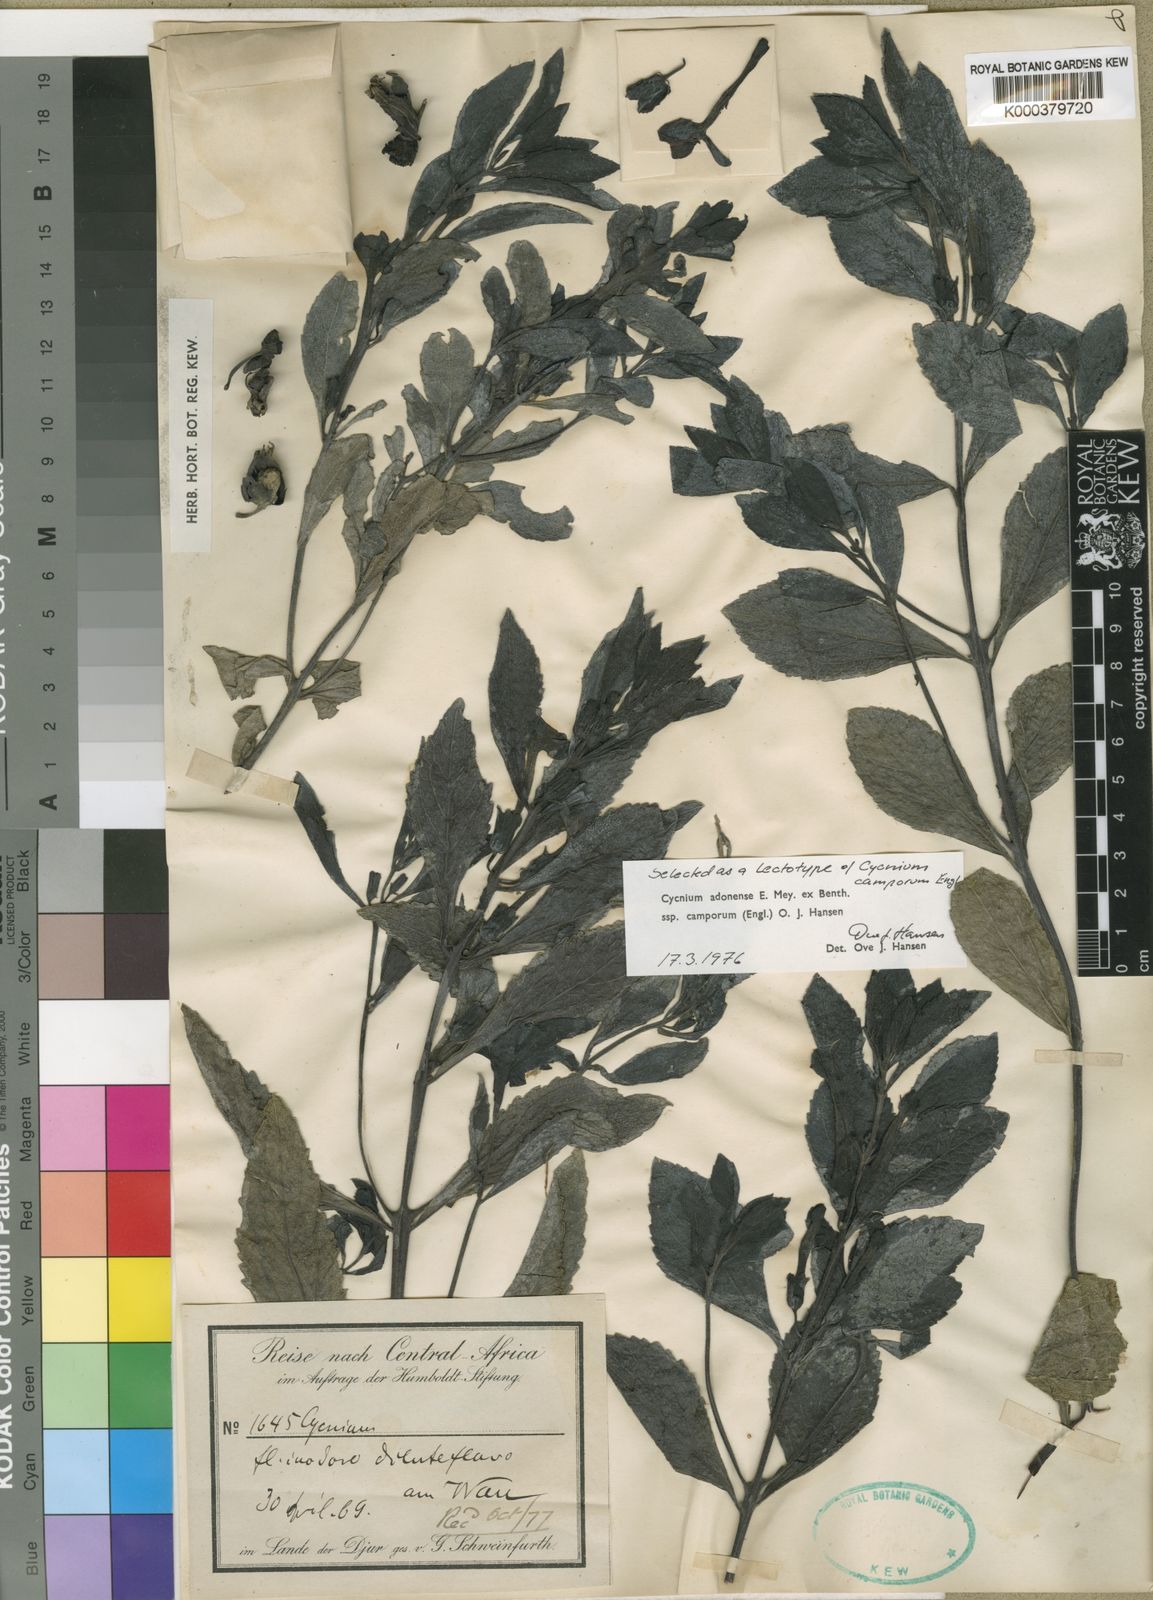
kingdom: Plantae
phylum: Tracheophyta
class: Magnoliopsida
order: Lamiales
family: Orobanchaceae
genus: Cycnium
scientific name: Cycnium adoense
